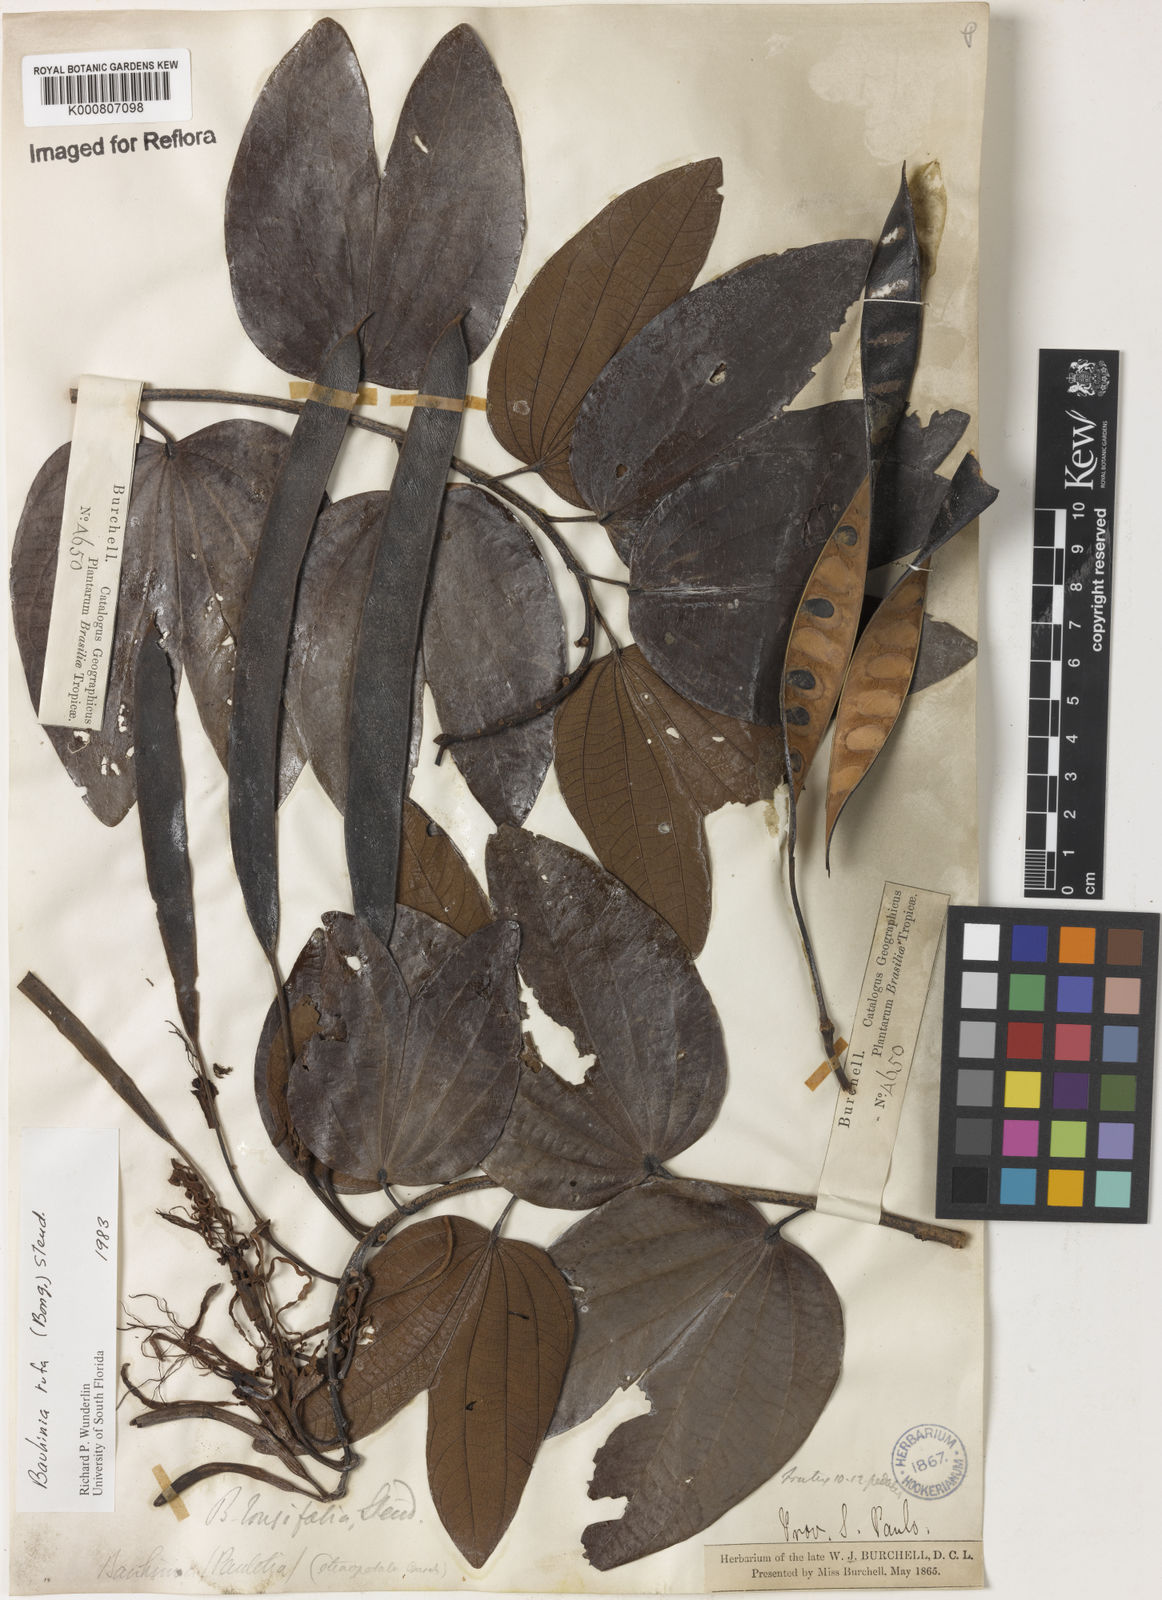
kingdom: Plantae
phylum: Tracheophyta
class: Magnoliopsida
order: Fabales
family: Fabaceae
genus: Bauhinia
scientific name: Bauhinia rufa
